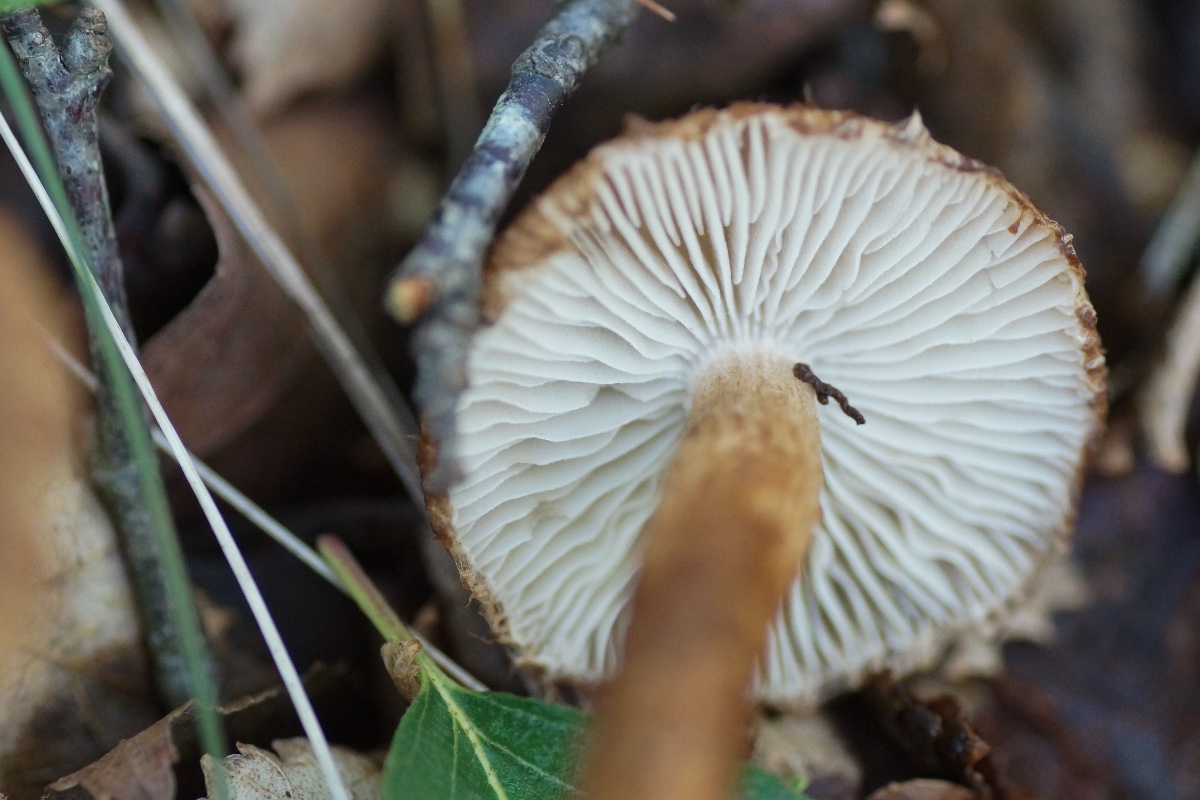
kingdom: Fungi
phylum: Basidiomycota
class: Agaricomycetes
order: Agaricales
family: Inocybaceae
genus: Inocybe
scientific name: Inocybe
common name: trævlhat
